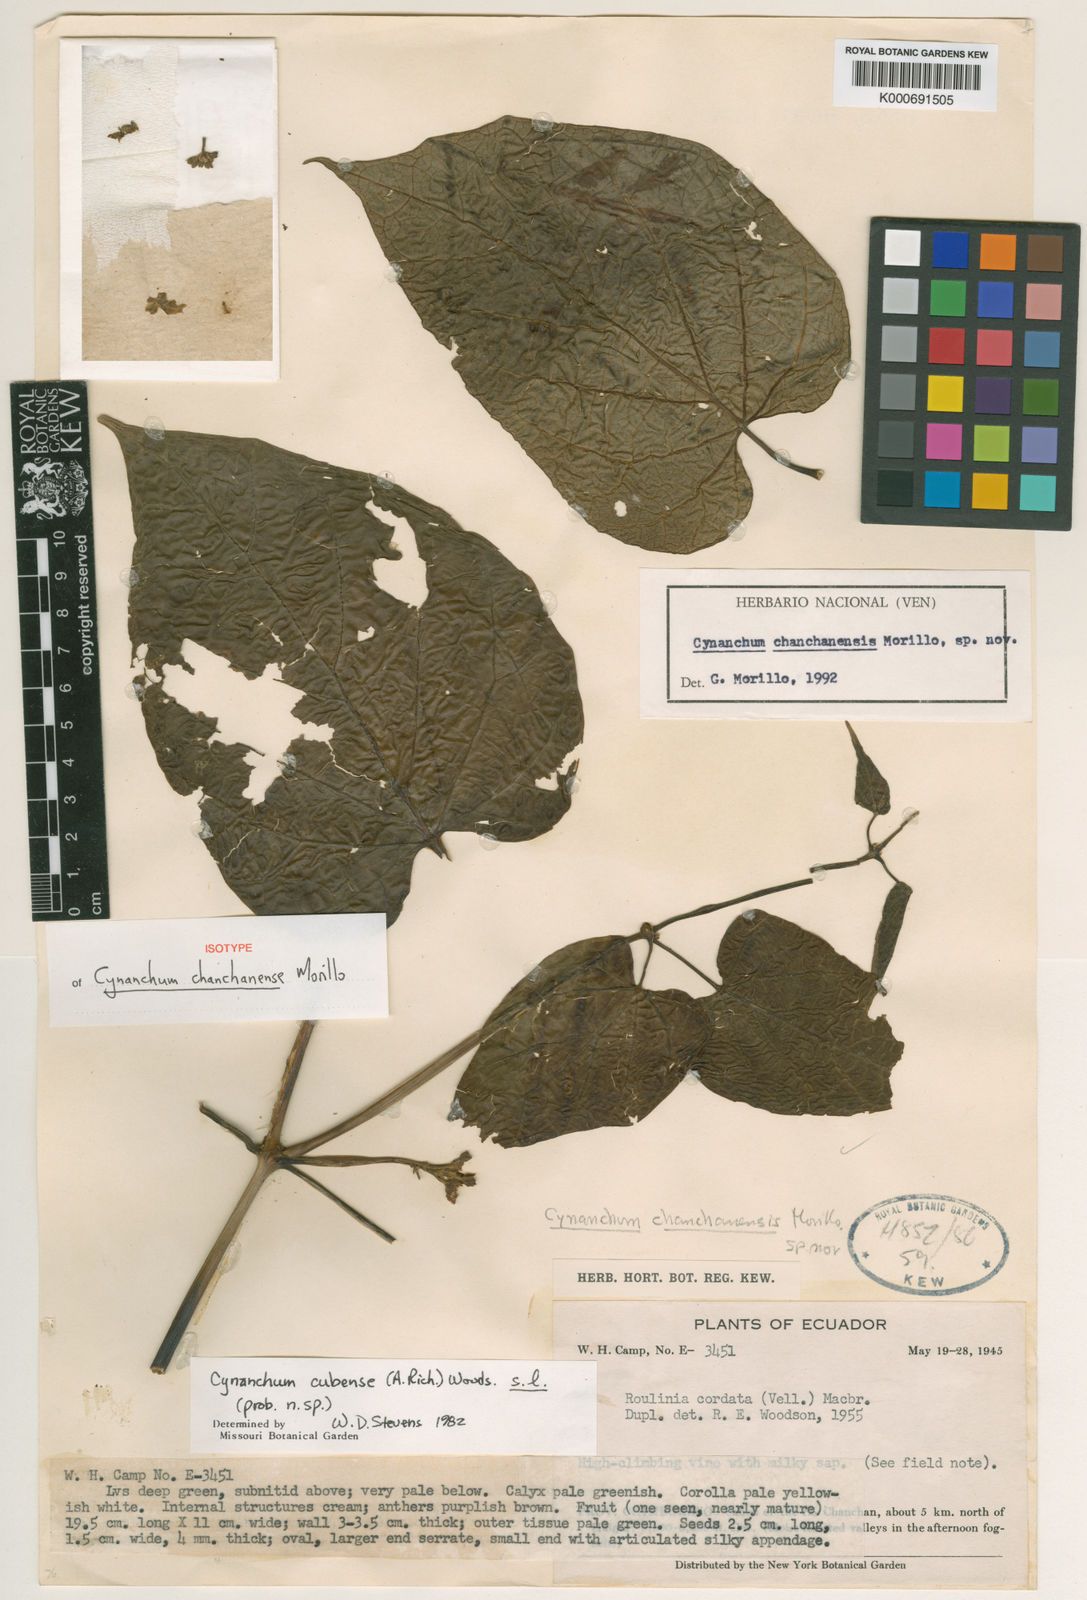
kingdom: Plantae
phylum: Tracheophyta
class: Magnoliopsida
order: Gentianales
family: Apocynaceae
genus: Cynanchum
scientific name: Cynanchum chanchanense
